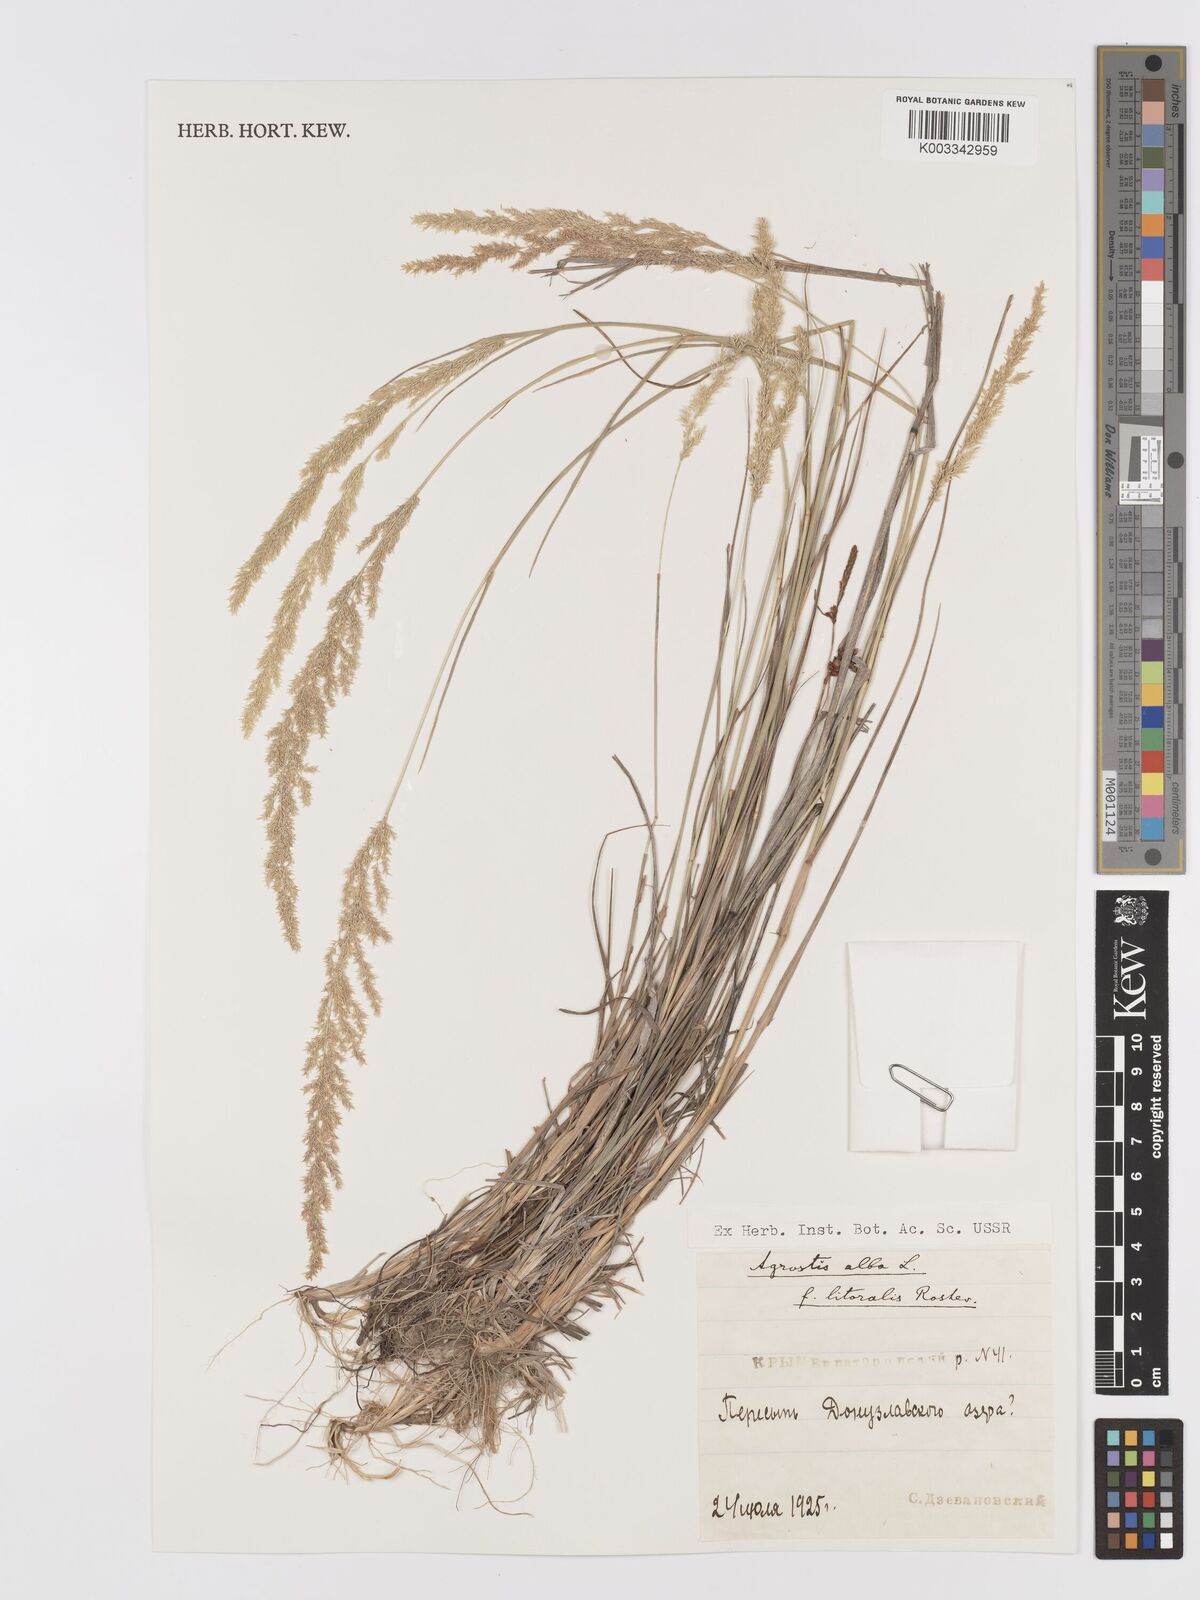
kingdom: Plantae
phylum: Tracheophyta
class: Liliopsida
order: Poales
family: Poaceae
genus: Agrostis
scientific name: Agrostis stolonifera
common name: Creeping bentgrass
